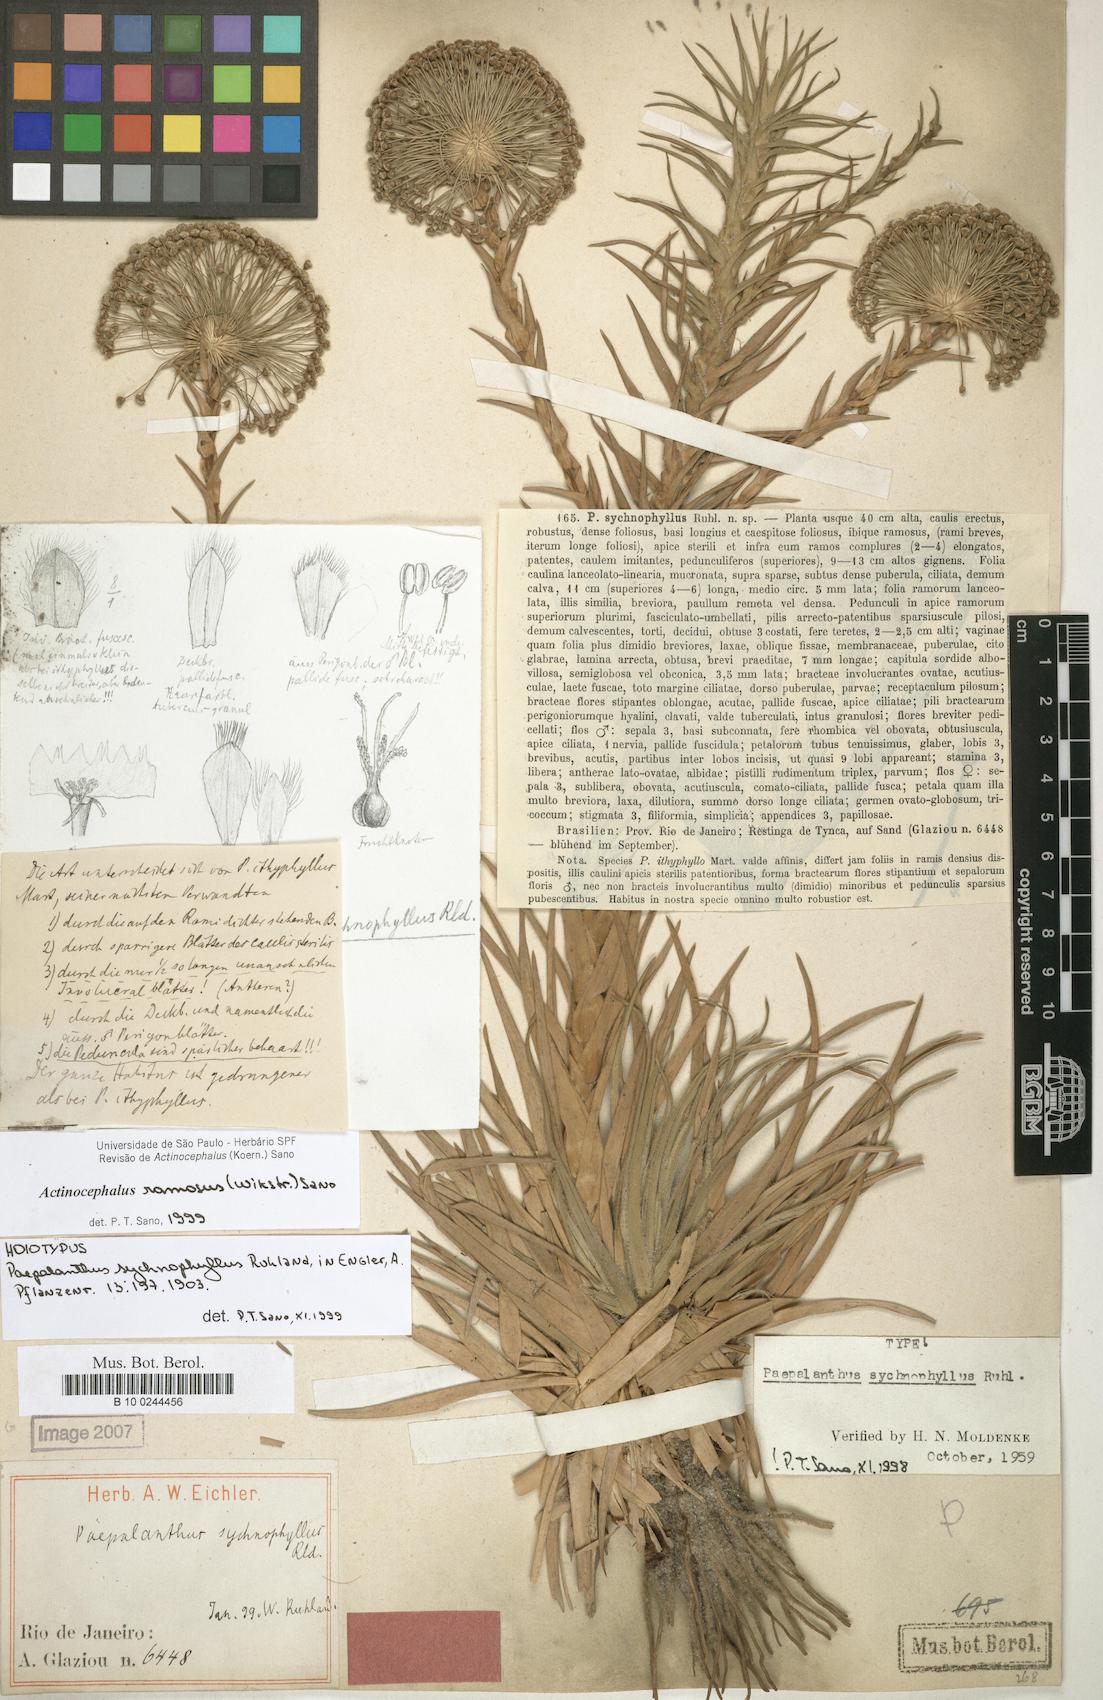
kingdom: Plantae
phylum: Tracheophyta
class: Liliopsida
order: Poales
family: Eriocaulaceae
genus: Paepalanthus
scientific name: Paepalanthus ramosus
